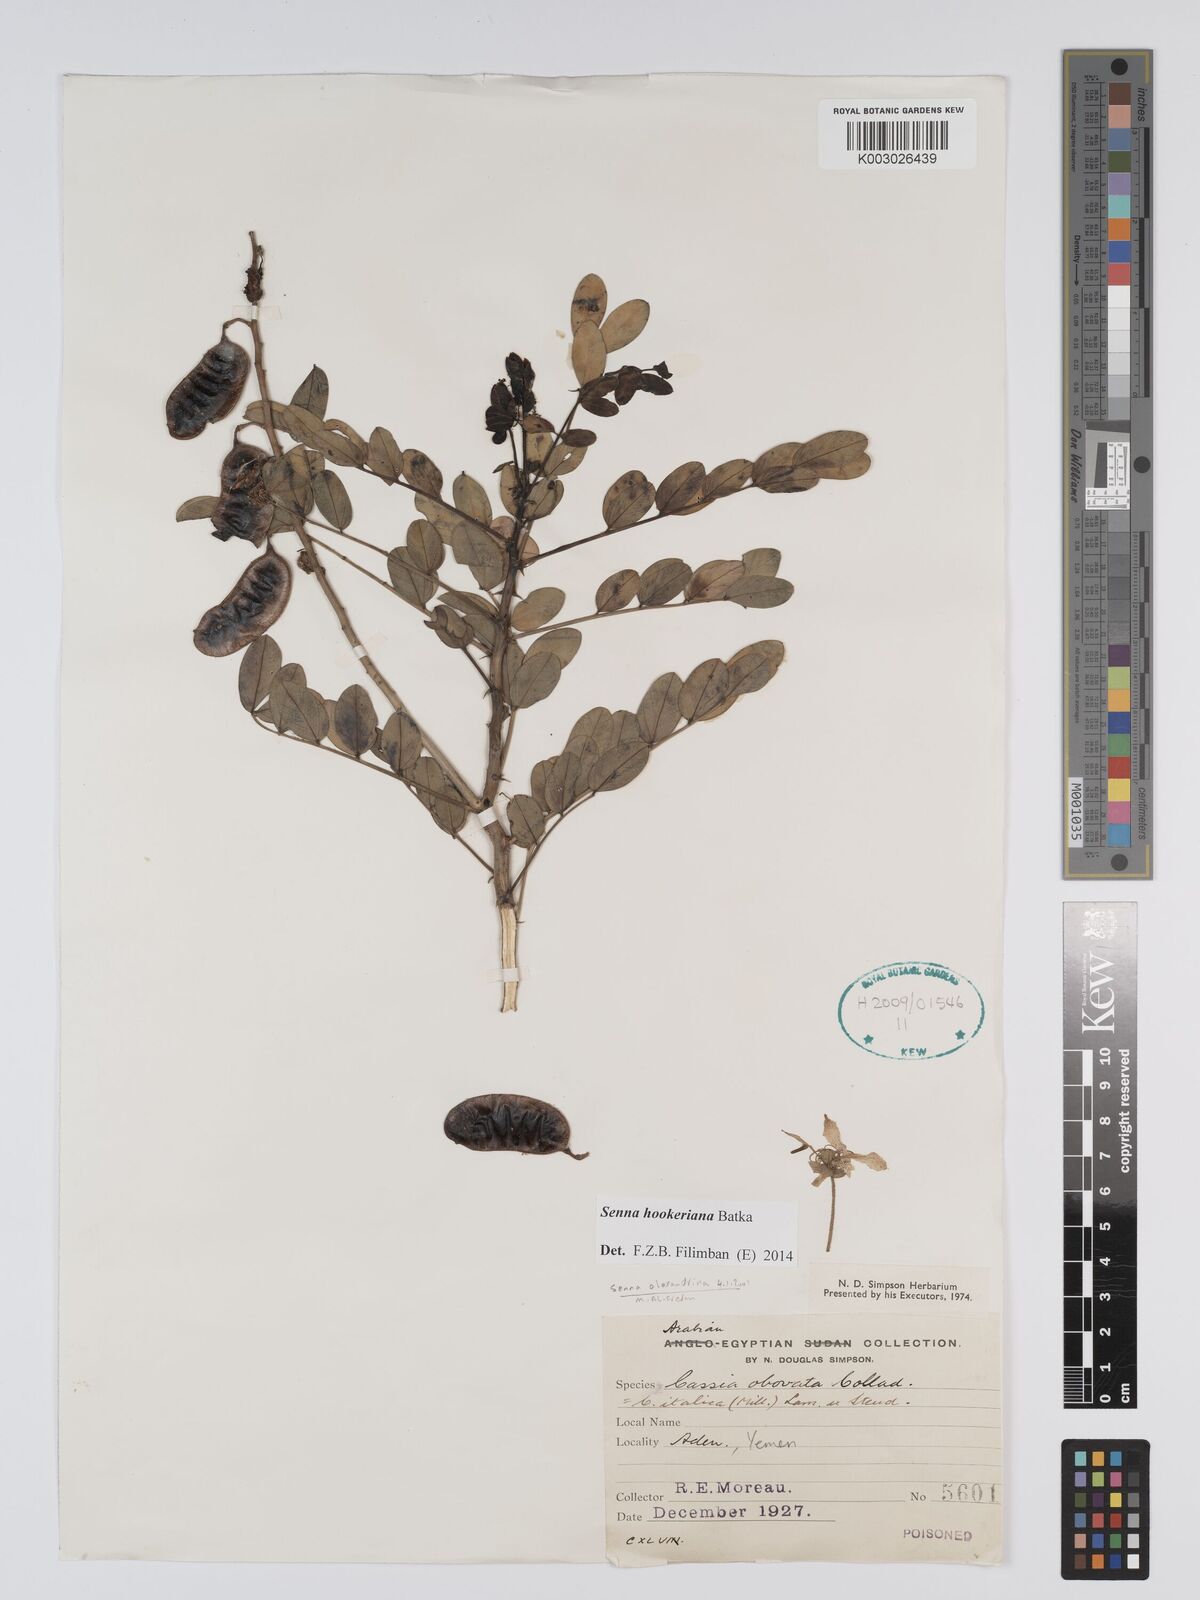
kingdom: Plantae
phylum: Tracheophyta
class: Magnoliopsida
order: Fabales
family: Fabaceae
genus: Senna
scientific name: Senna birostris
